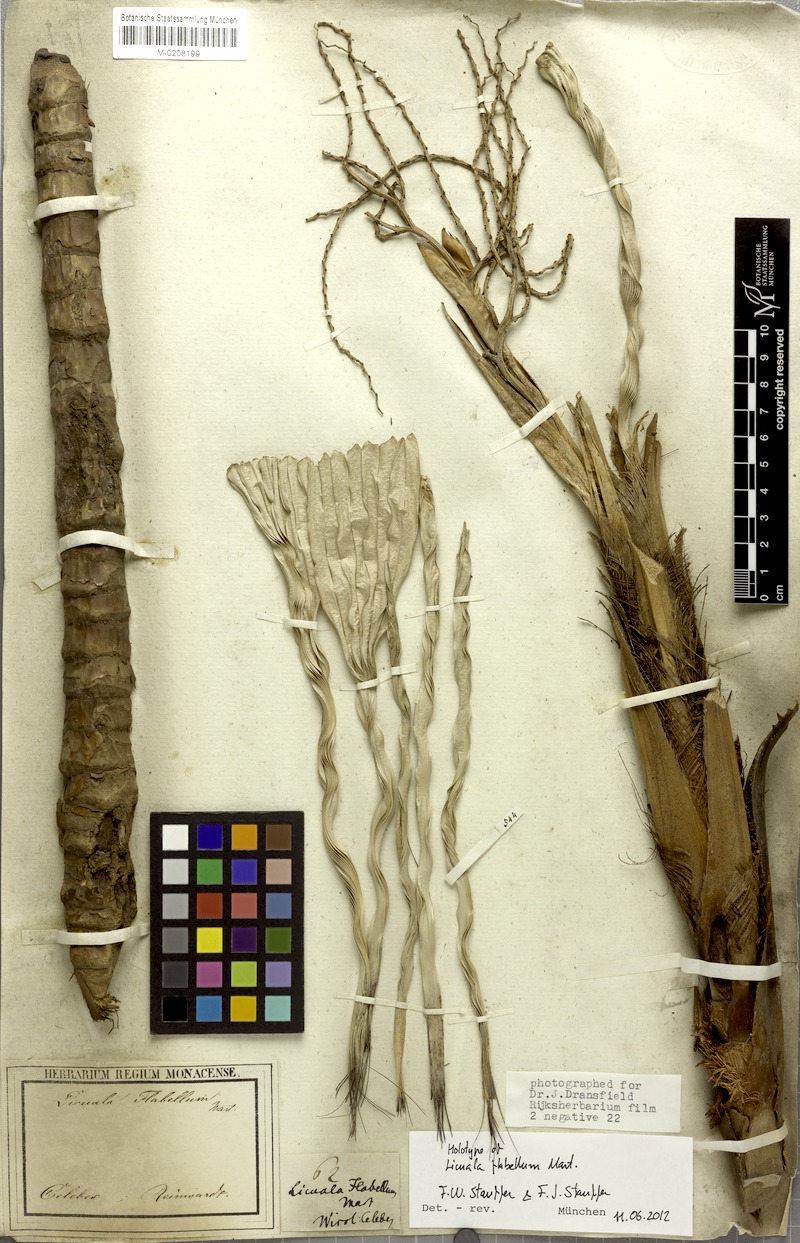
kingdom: Plantae
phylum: Tracheophyta
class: Liliopsida
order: Arecales
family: Arecaceae
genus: Lanonia
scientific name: Lanonia gracilis
